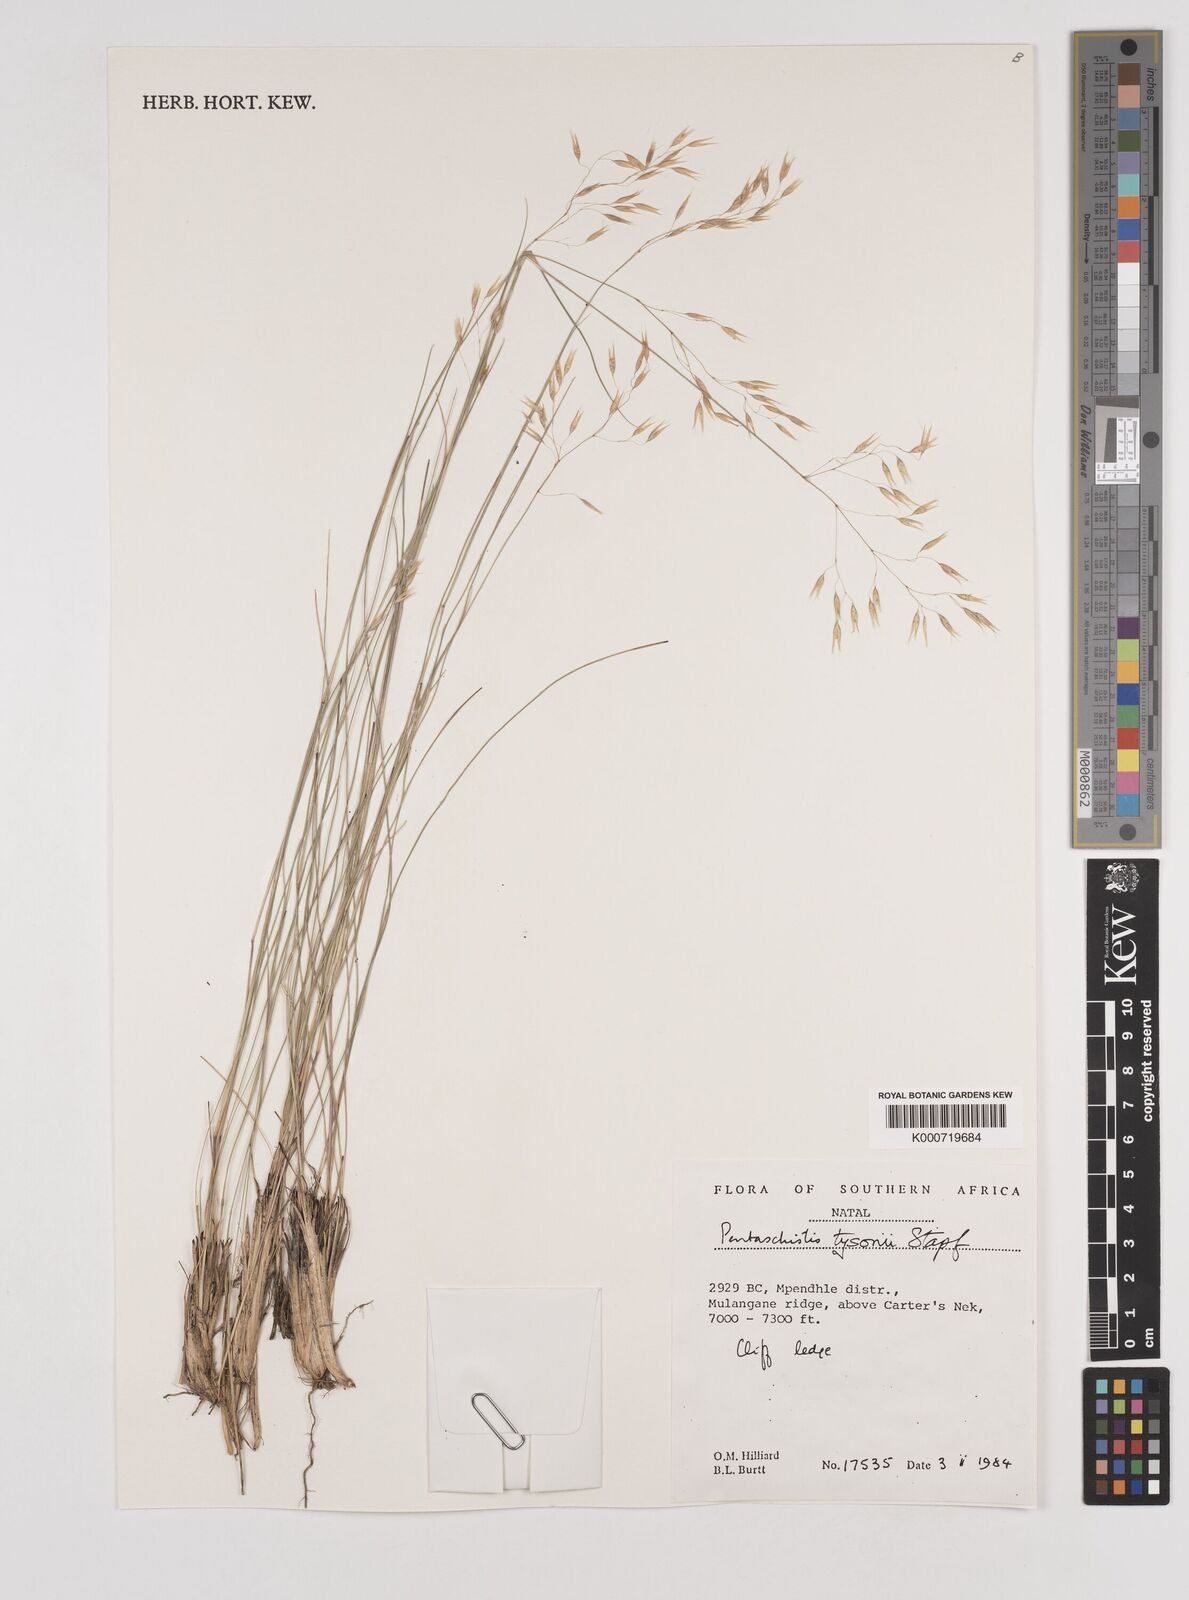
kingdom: Plantae
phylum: Tracheophyta
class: Liliopsida
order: Poales
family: Poaceae
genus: Pentameris
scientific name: Pentameris tysonii
